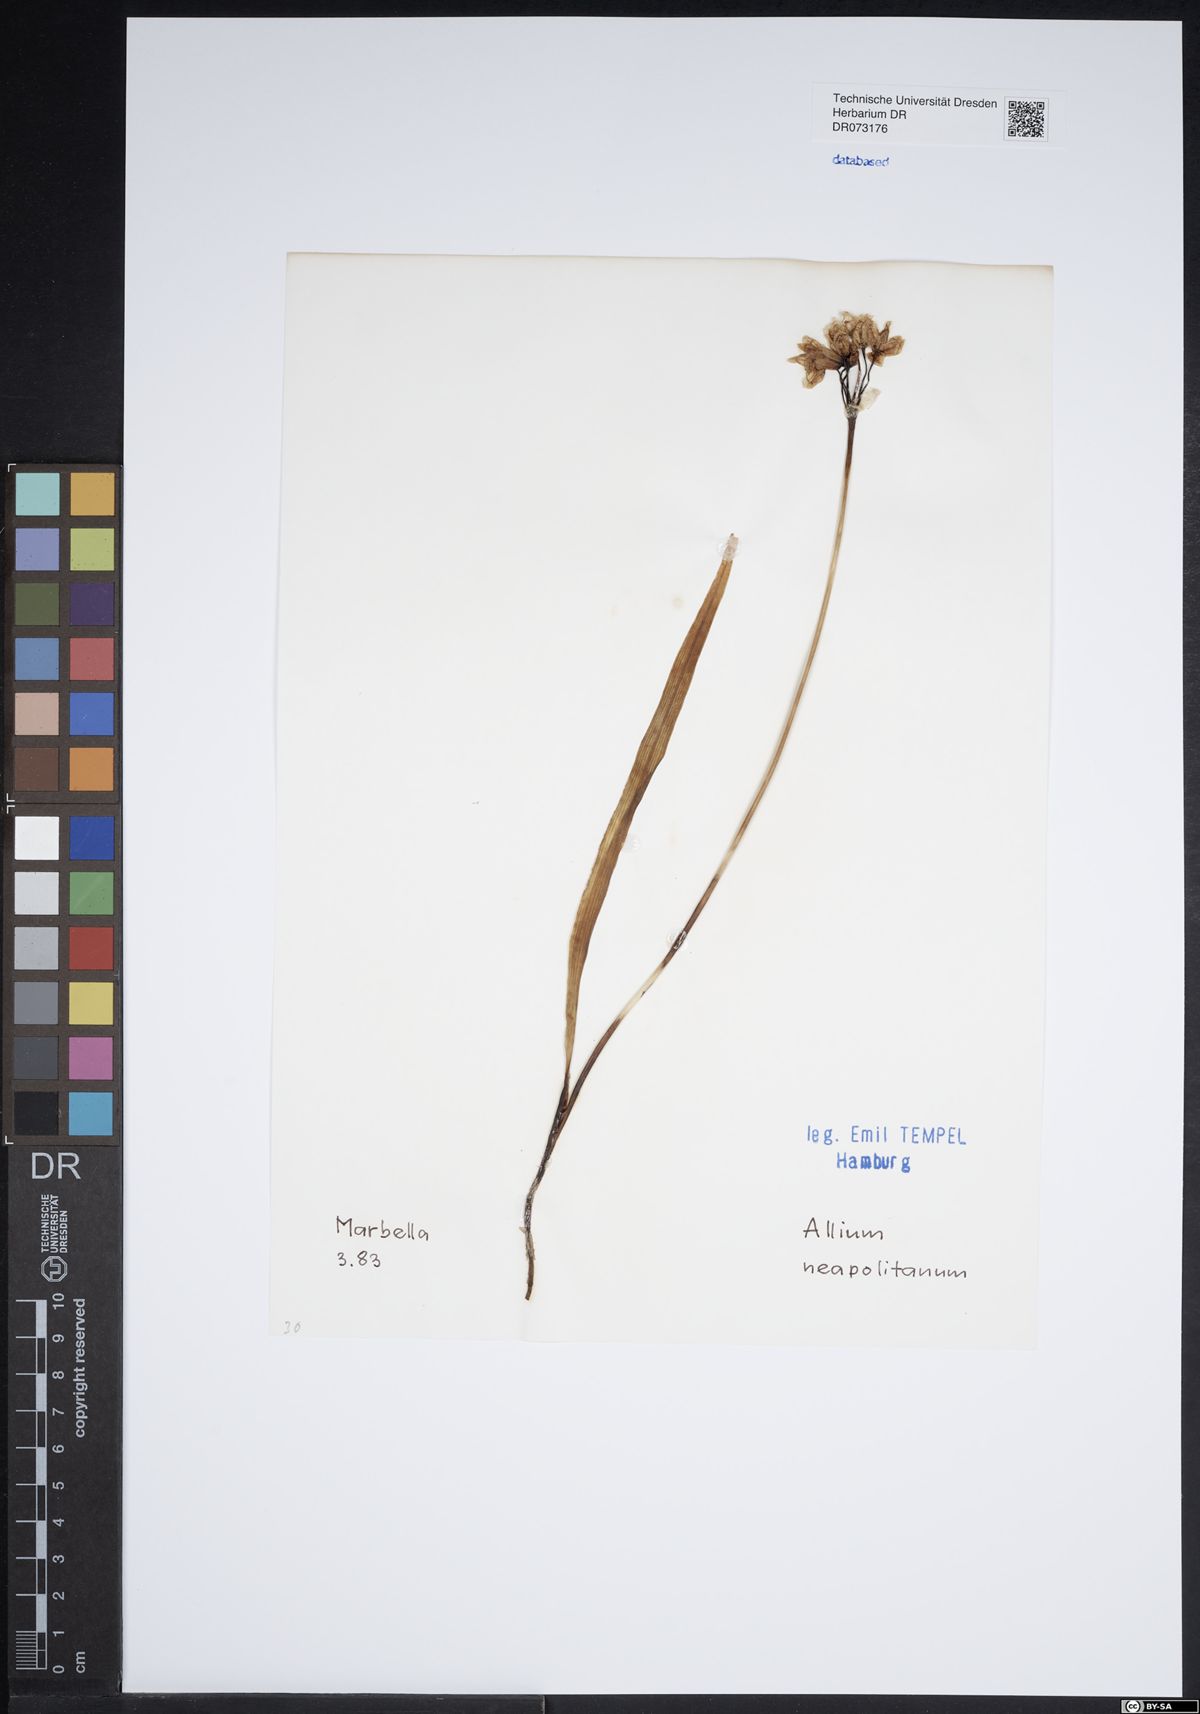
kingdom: Plantae
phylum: Tracheophyta
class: Liliopsida
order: Asparagales
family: Amaryllidaceae
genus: Allium
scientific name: Allium neapolitanum
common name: Neapolitan garlic
